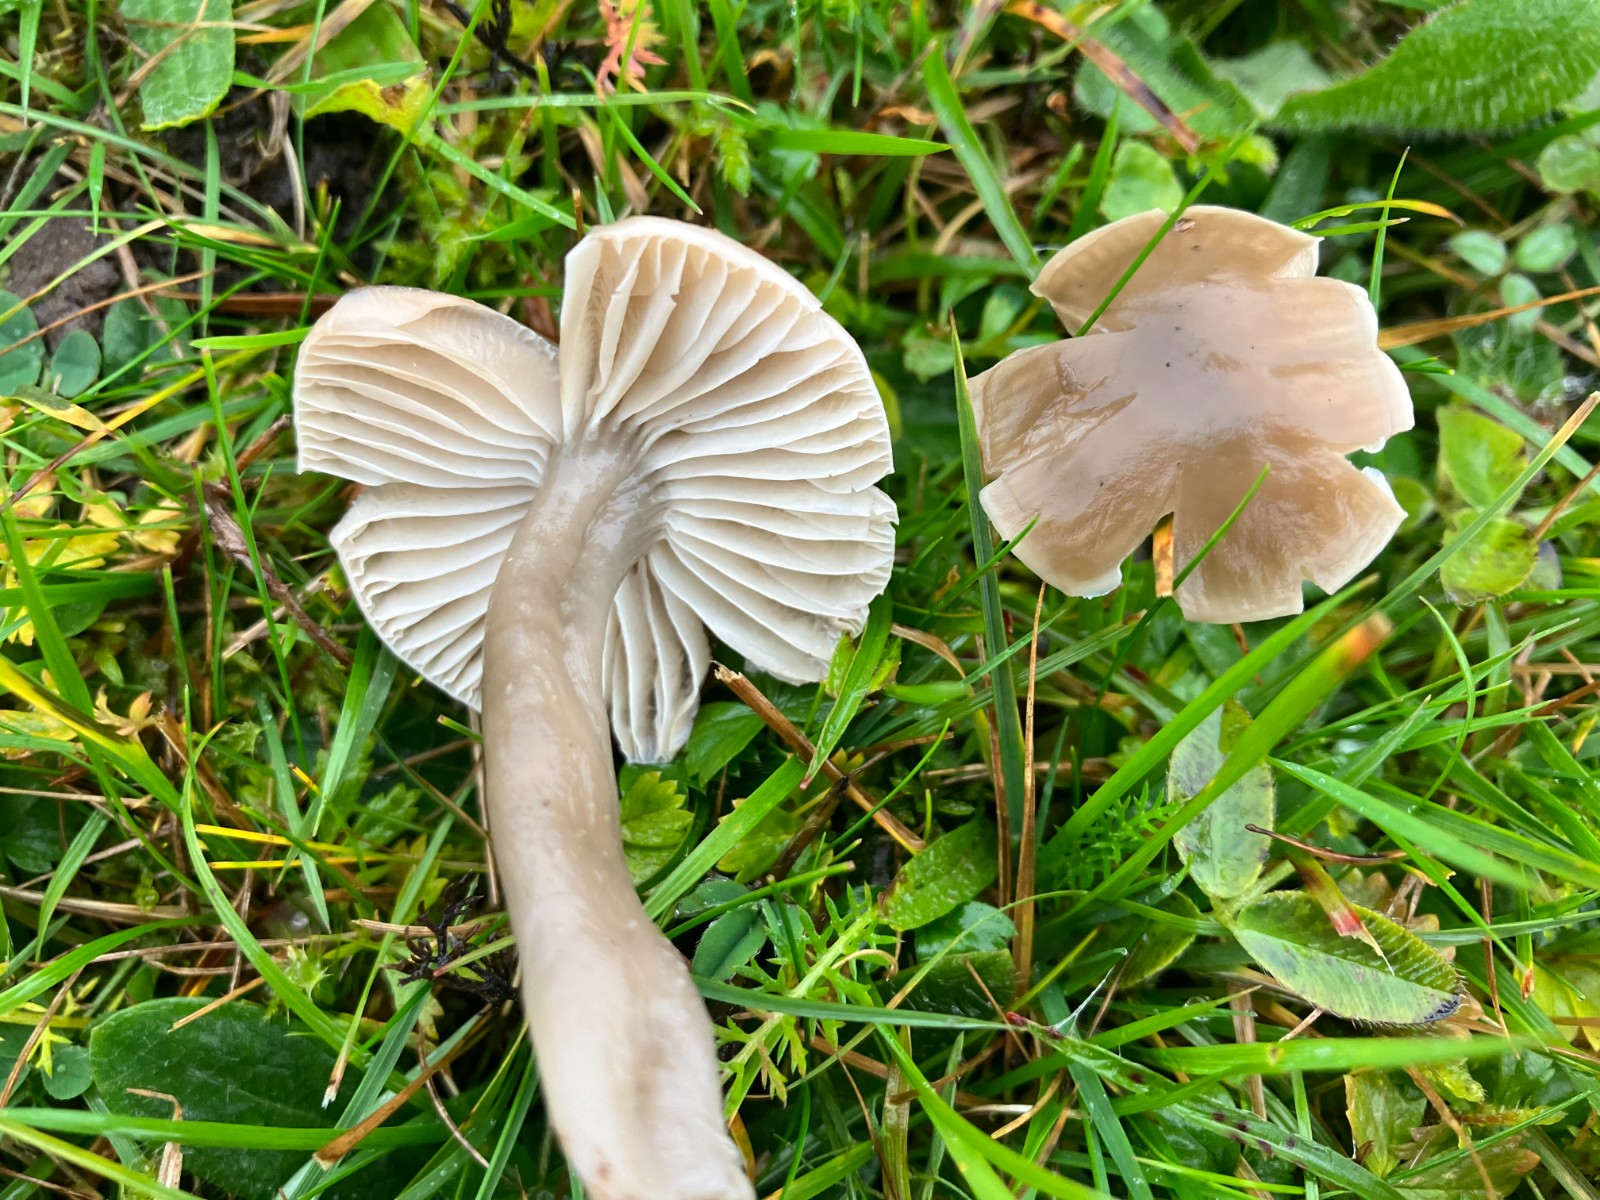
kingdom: Fungi
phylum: Basidiomycota
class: Agaricomycetes
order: Agaricales
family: Hygrophoraceae
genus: Gliophorus
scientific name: Gliophorus irrigatus
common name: slimet vokshat
